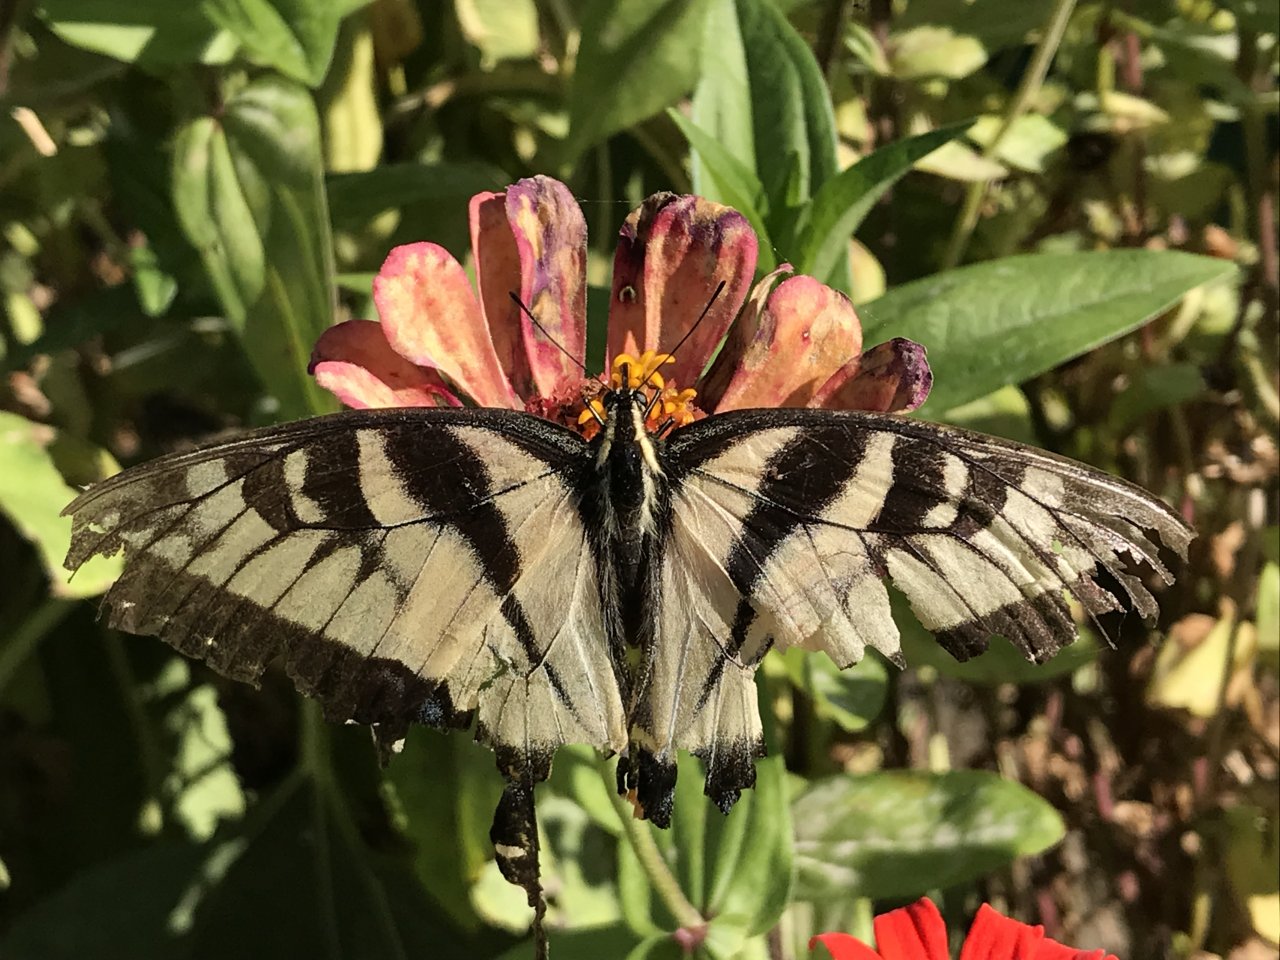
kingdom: Animalia
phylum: Arthropoda
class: Insecta
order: Lepidoptera
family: Papilionidae
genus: Pterourus
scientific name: Pterourus glaucus
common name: Eastern Tiger Swallowtail
